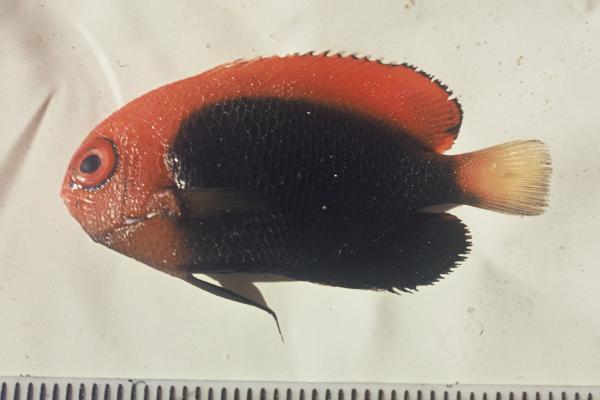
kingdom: Animalia
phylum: Chordata
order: Perciformes
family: Pomacanthidae
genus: Centropyge
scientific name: Centropyge acanthops
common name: African pygmy angelfish
